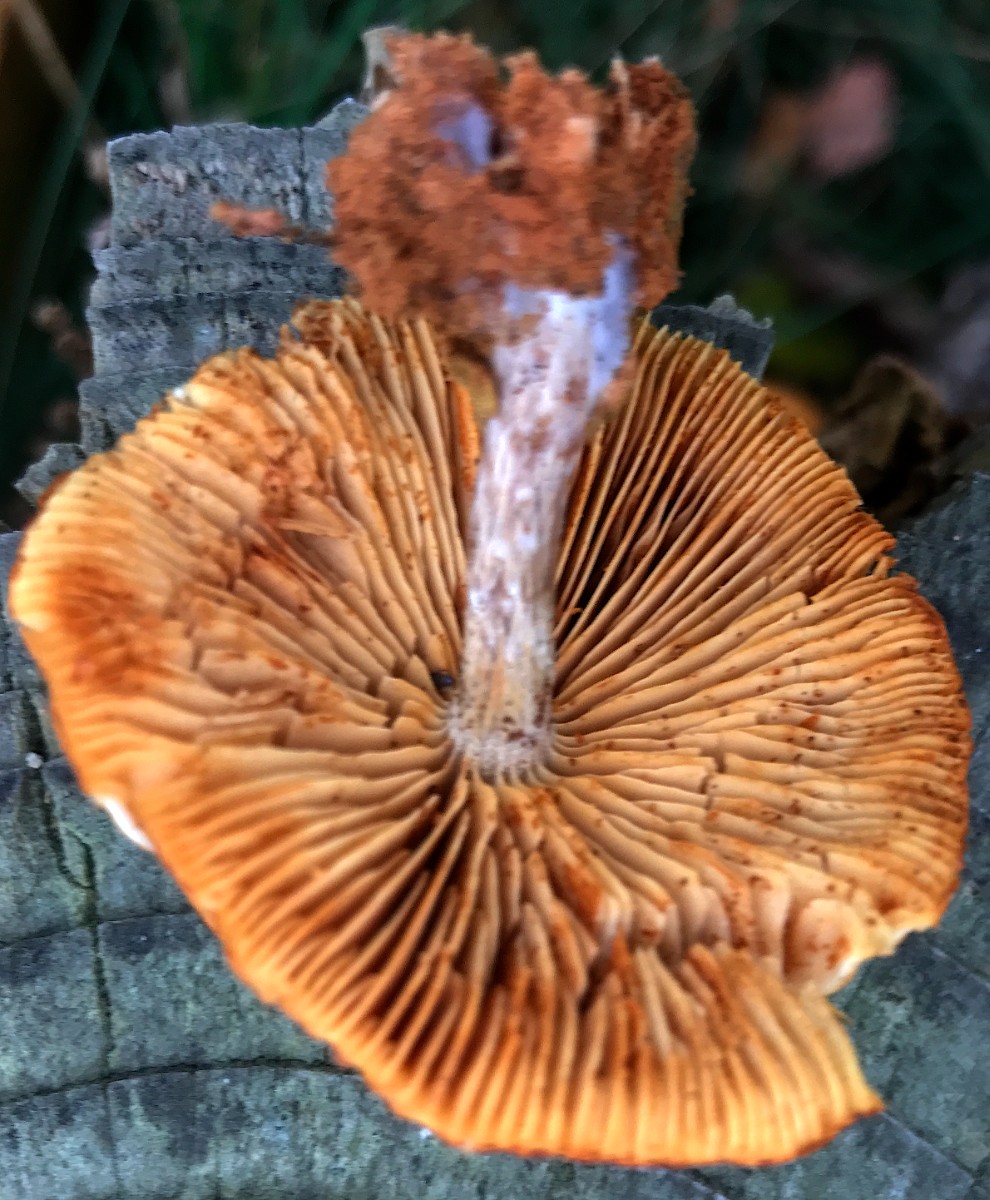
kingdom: Fungi
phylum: Basidiomycota
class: Agaricomycetes
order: Agaricales
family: Hymenogastraceae
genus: Gymnopilus
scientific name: Gymnopilus penetrans
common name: plettet flammehat
